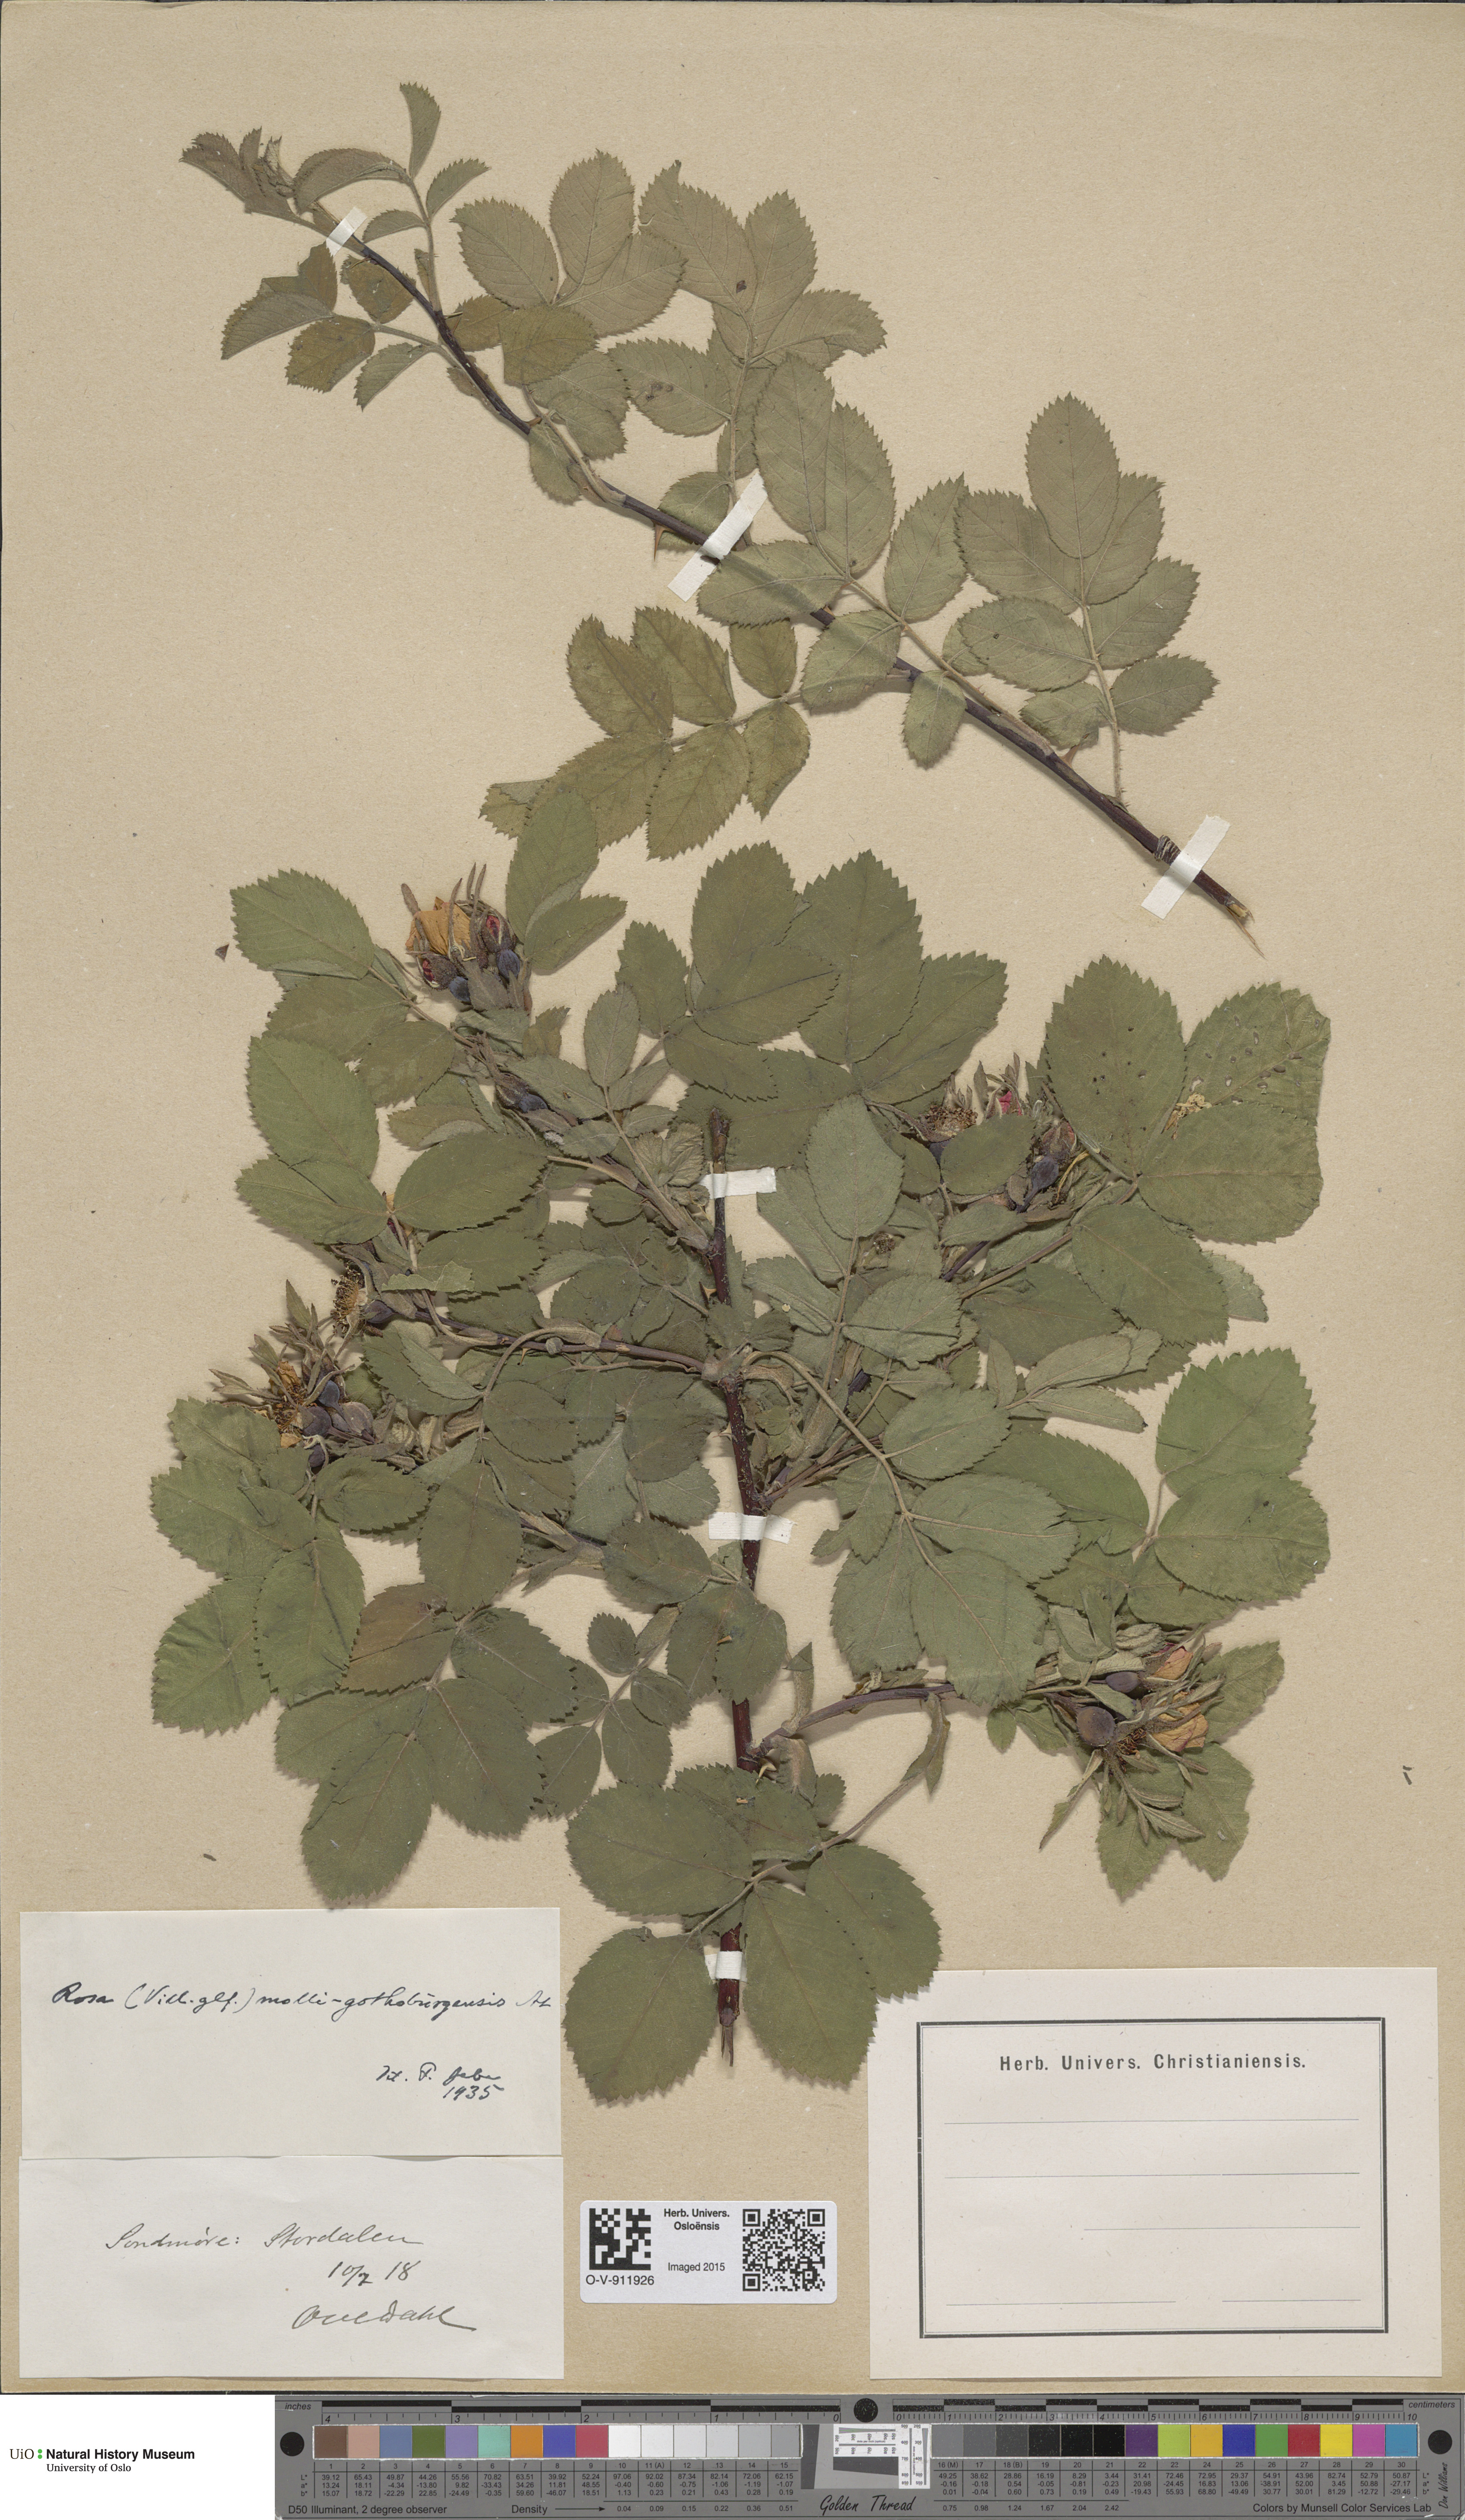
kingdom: Plantae
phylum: Tracheophyta
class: Magnoliopsida
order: Rosales
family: Rosaceae
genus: Rosa
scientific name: Rosa mollis
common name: Rose
